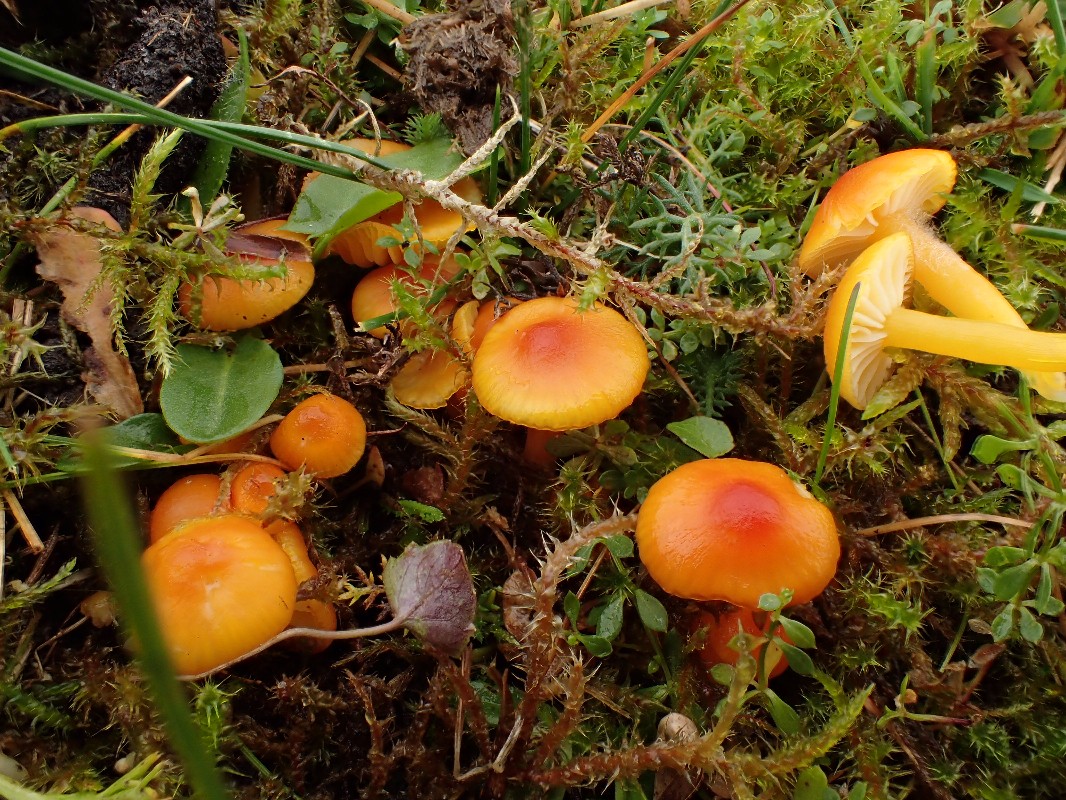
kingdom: Fungi
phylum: Basidiomycota
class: Agaricomycetes
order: Agaricales
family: Hygrophoraceae
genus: Hygrocybe
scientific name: Hygrocybe insipida
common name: liden vokshat
